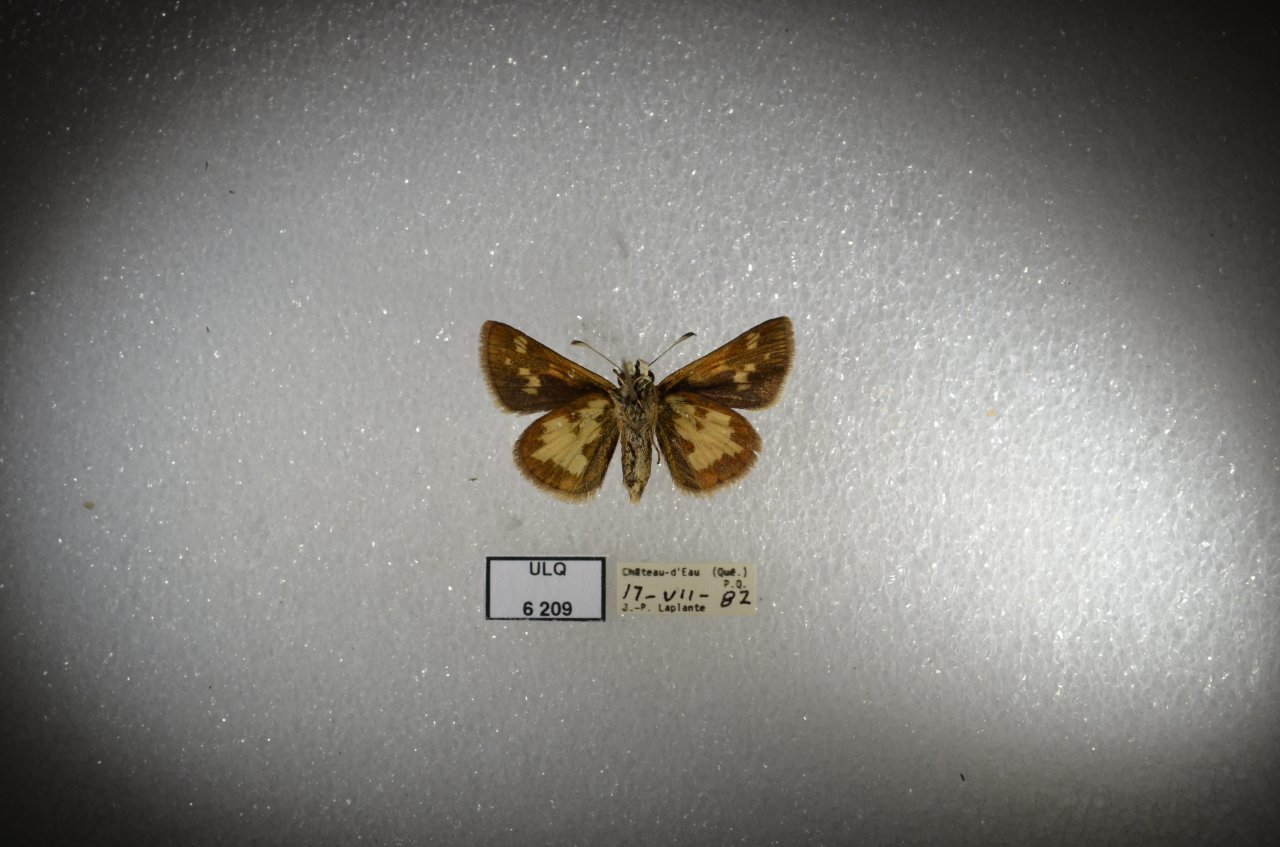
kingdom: Animalia
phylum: Arthropoda
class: Insecta
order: Lepidoptera
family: Hesperiidae
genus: Polites
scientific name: Polites coras
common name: Peck's Skipper
